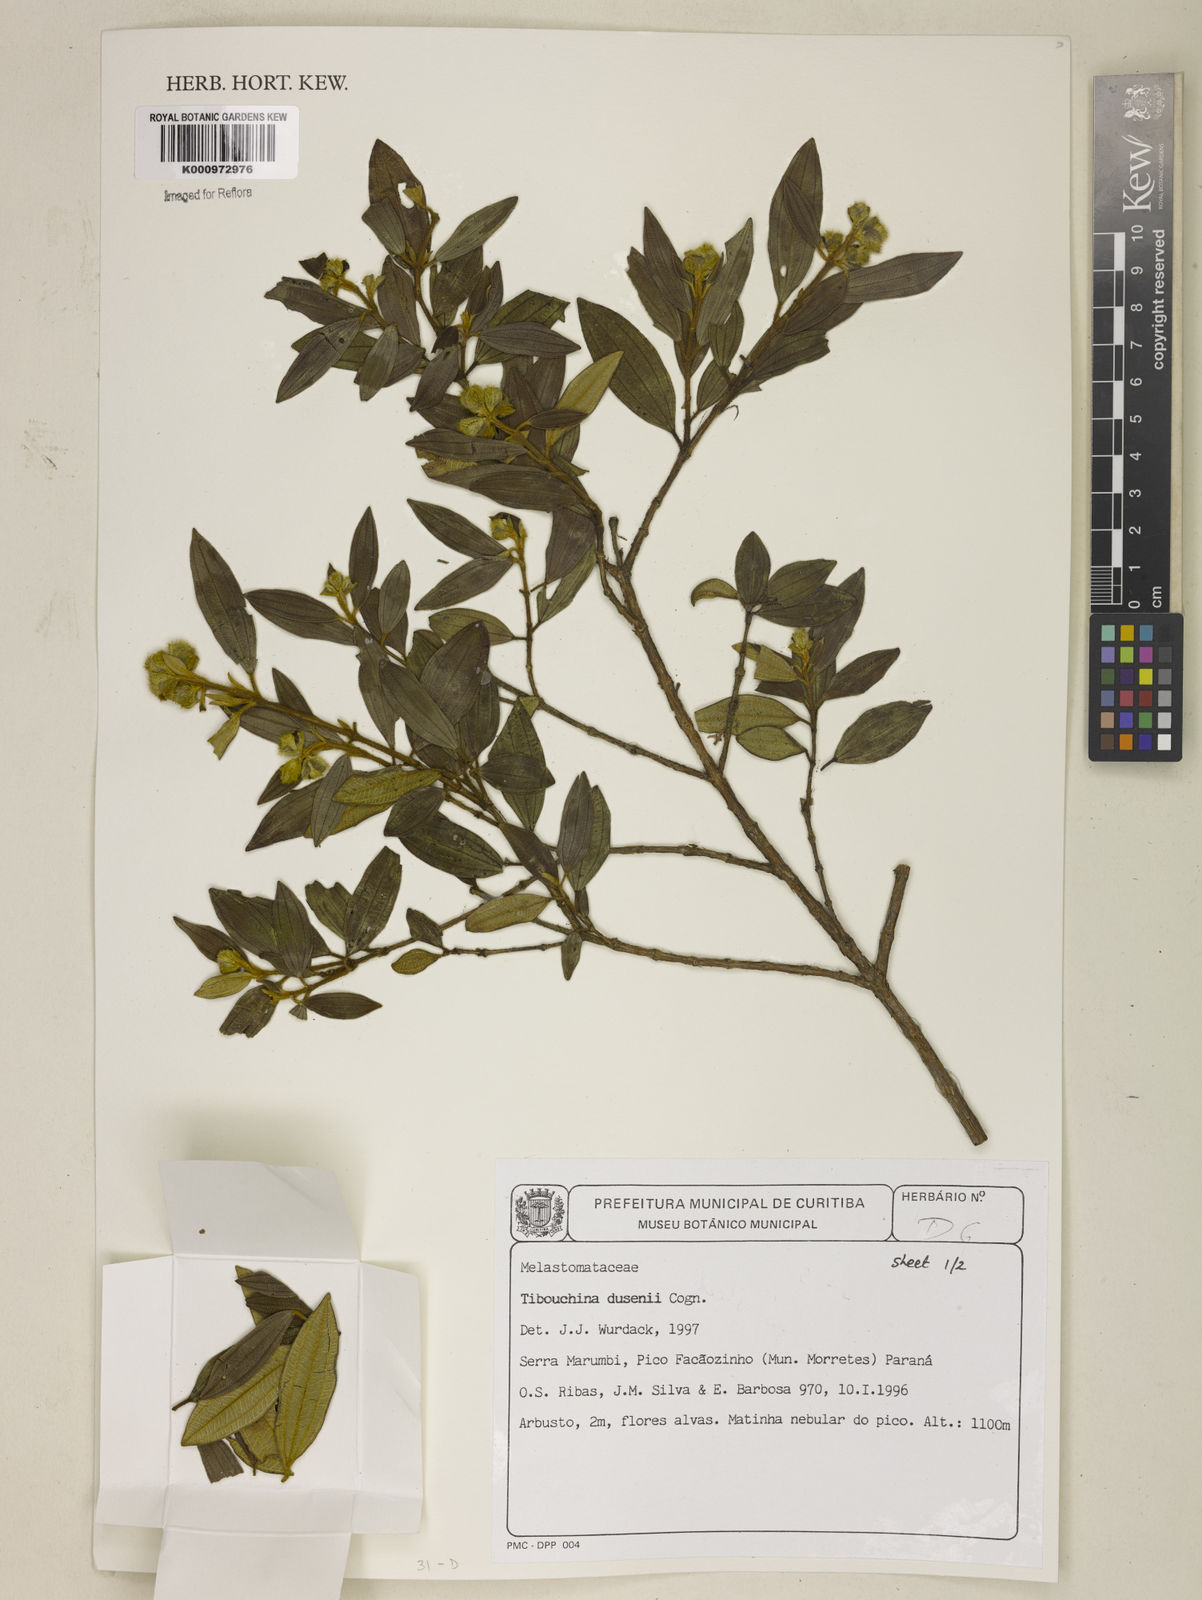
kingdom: Plantae
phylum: Tracheophyta
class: Magnoliopsida
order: Myrtales
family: Melastomataceae
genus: Tibouchina
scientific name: Tibouchina
